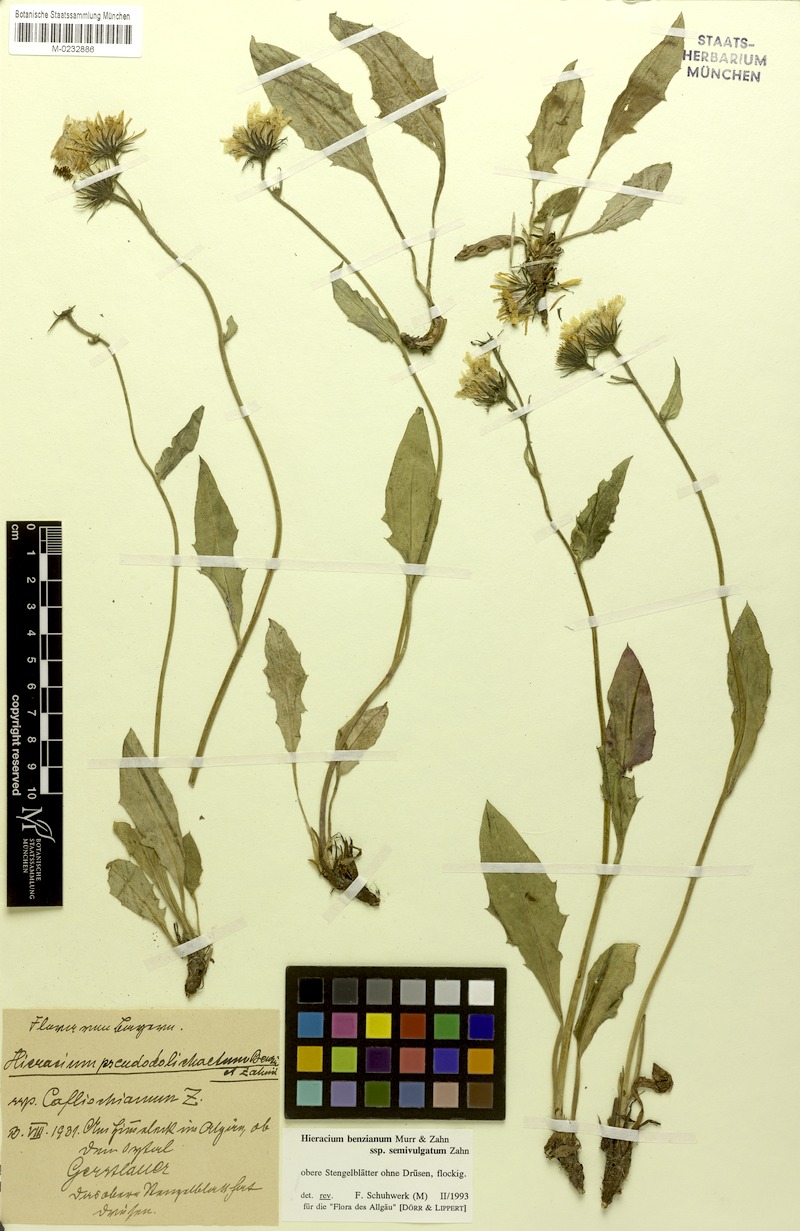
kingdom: Plantae
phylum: Tracheophyta
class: Magnoliopsida
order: Asterales
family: Asteraceae
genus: Hieracium
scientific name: Hieracium benzianum
